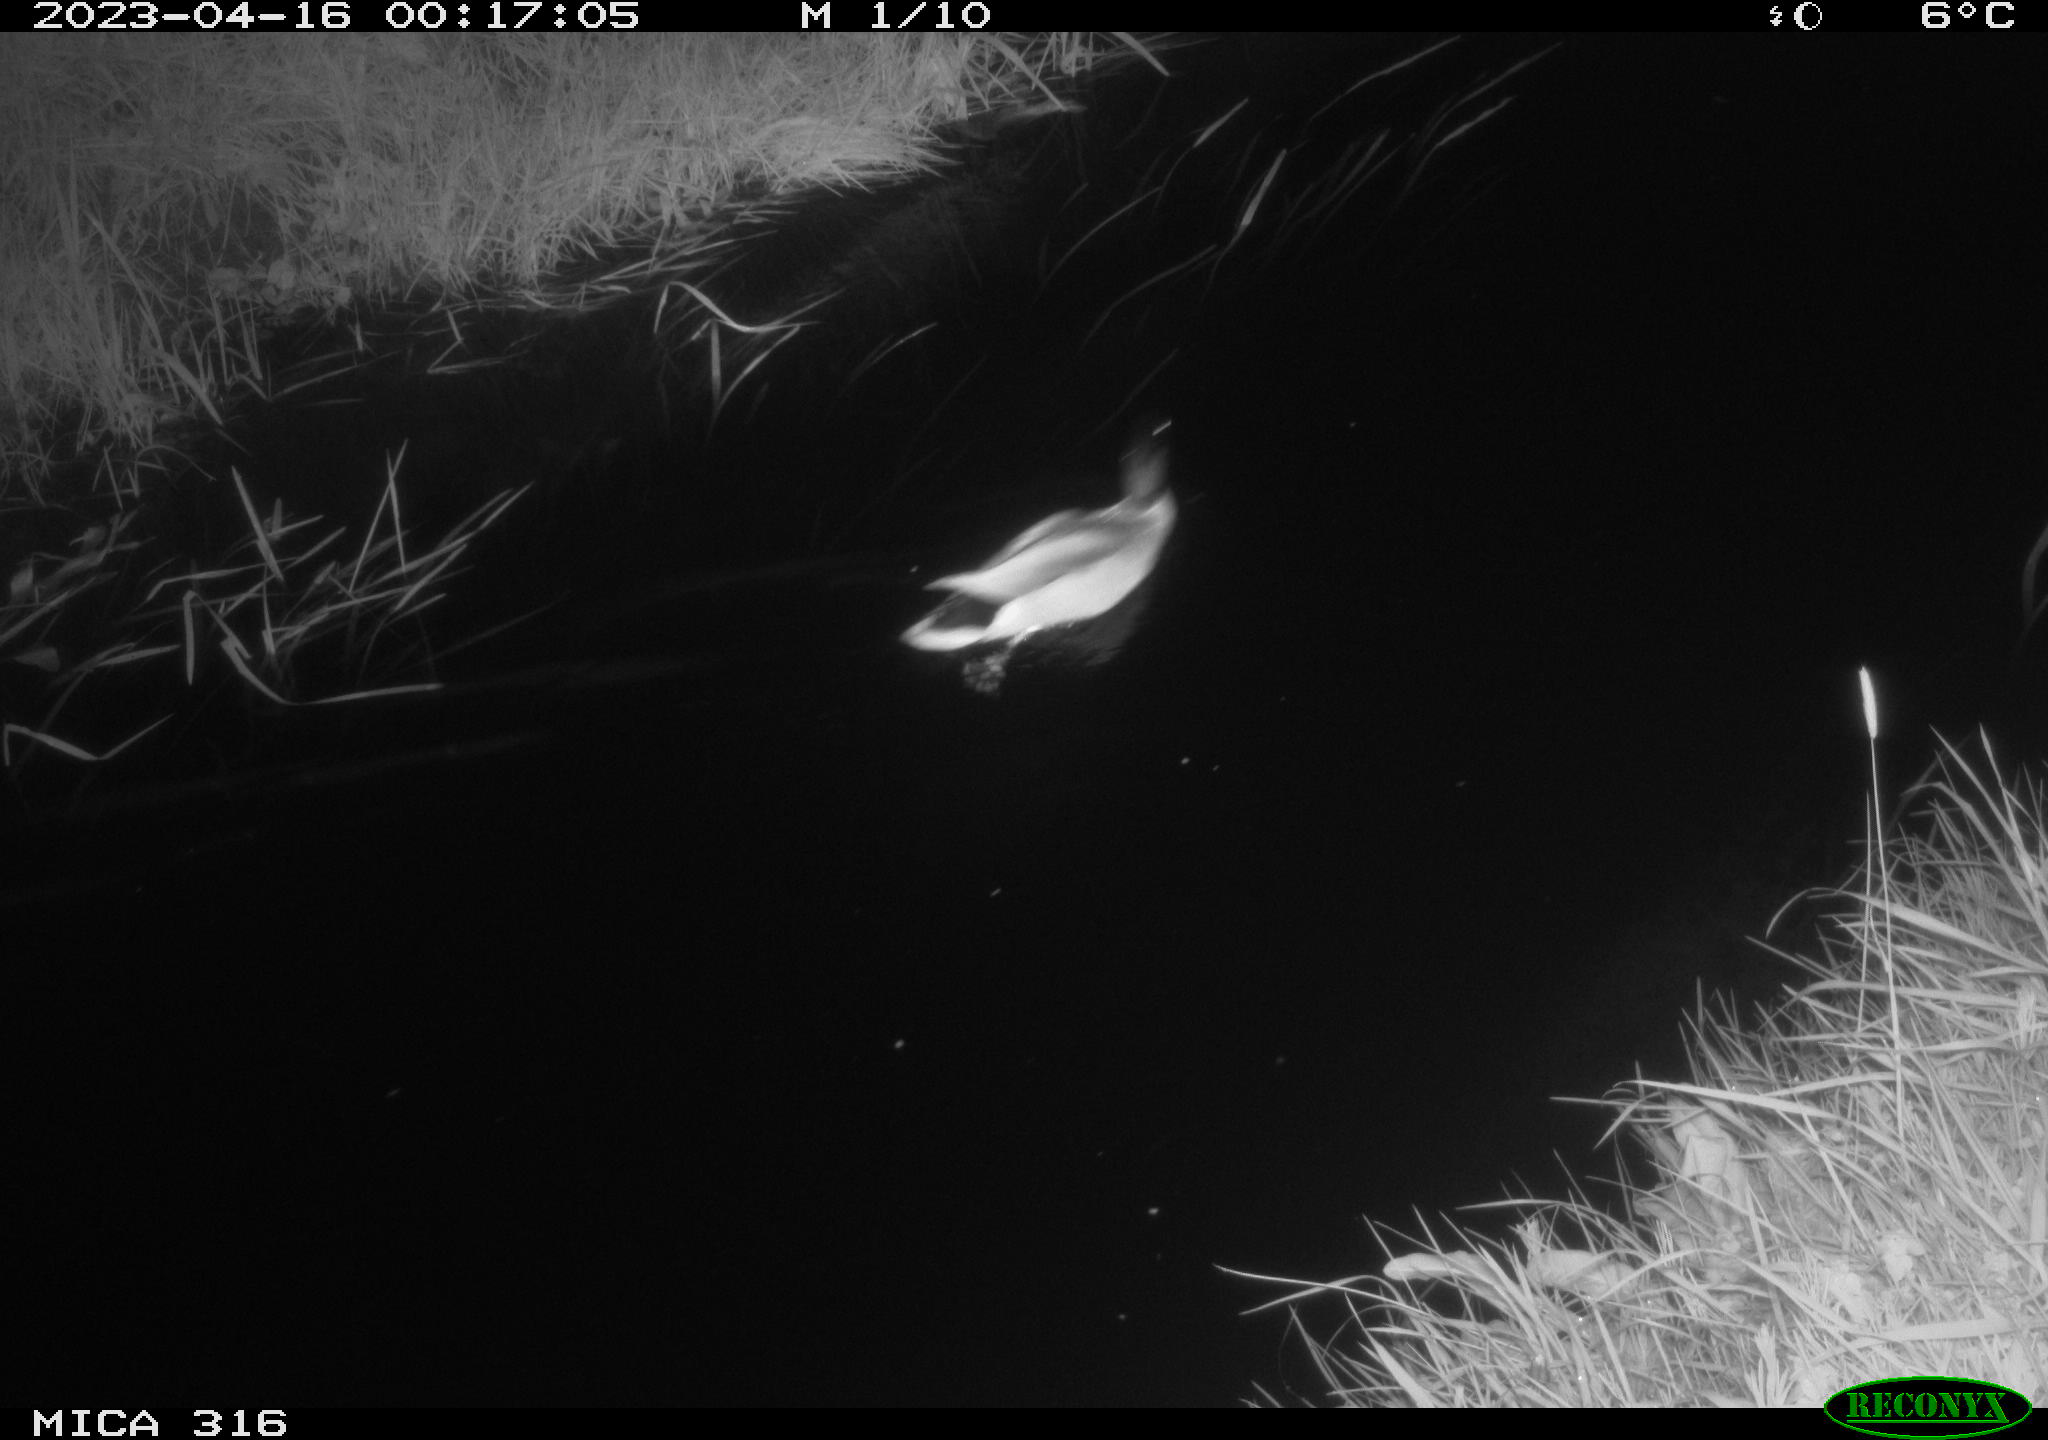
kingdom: Animalia
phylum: Chordata
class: Aves
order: Anseriformes
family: Anatidae
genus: Anas
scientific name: Anas
